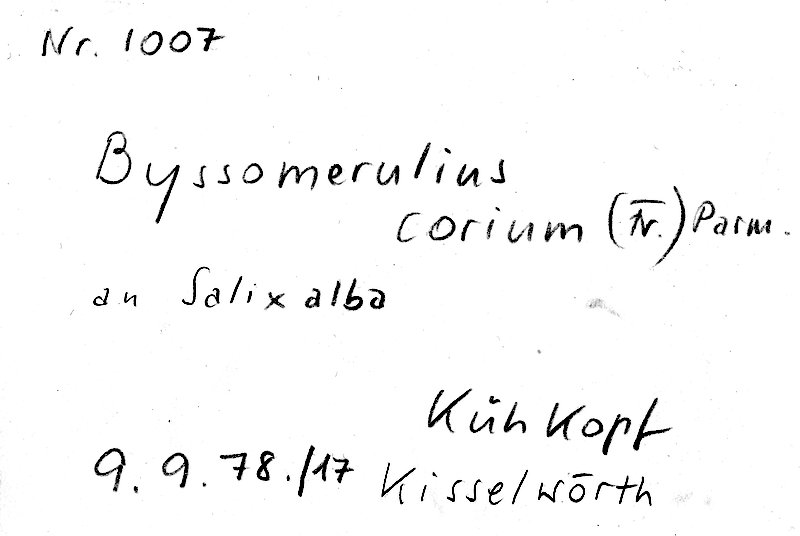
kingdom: Fungi
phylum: Basidiomycota
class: Agaricomycetes
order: Polyporales
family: Irpicaceae
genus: Byssomerulius
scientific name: Byssomerulius corium
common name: Netted crust
